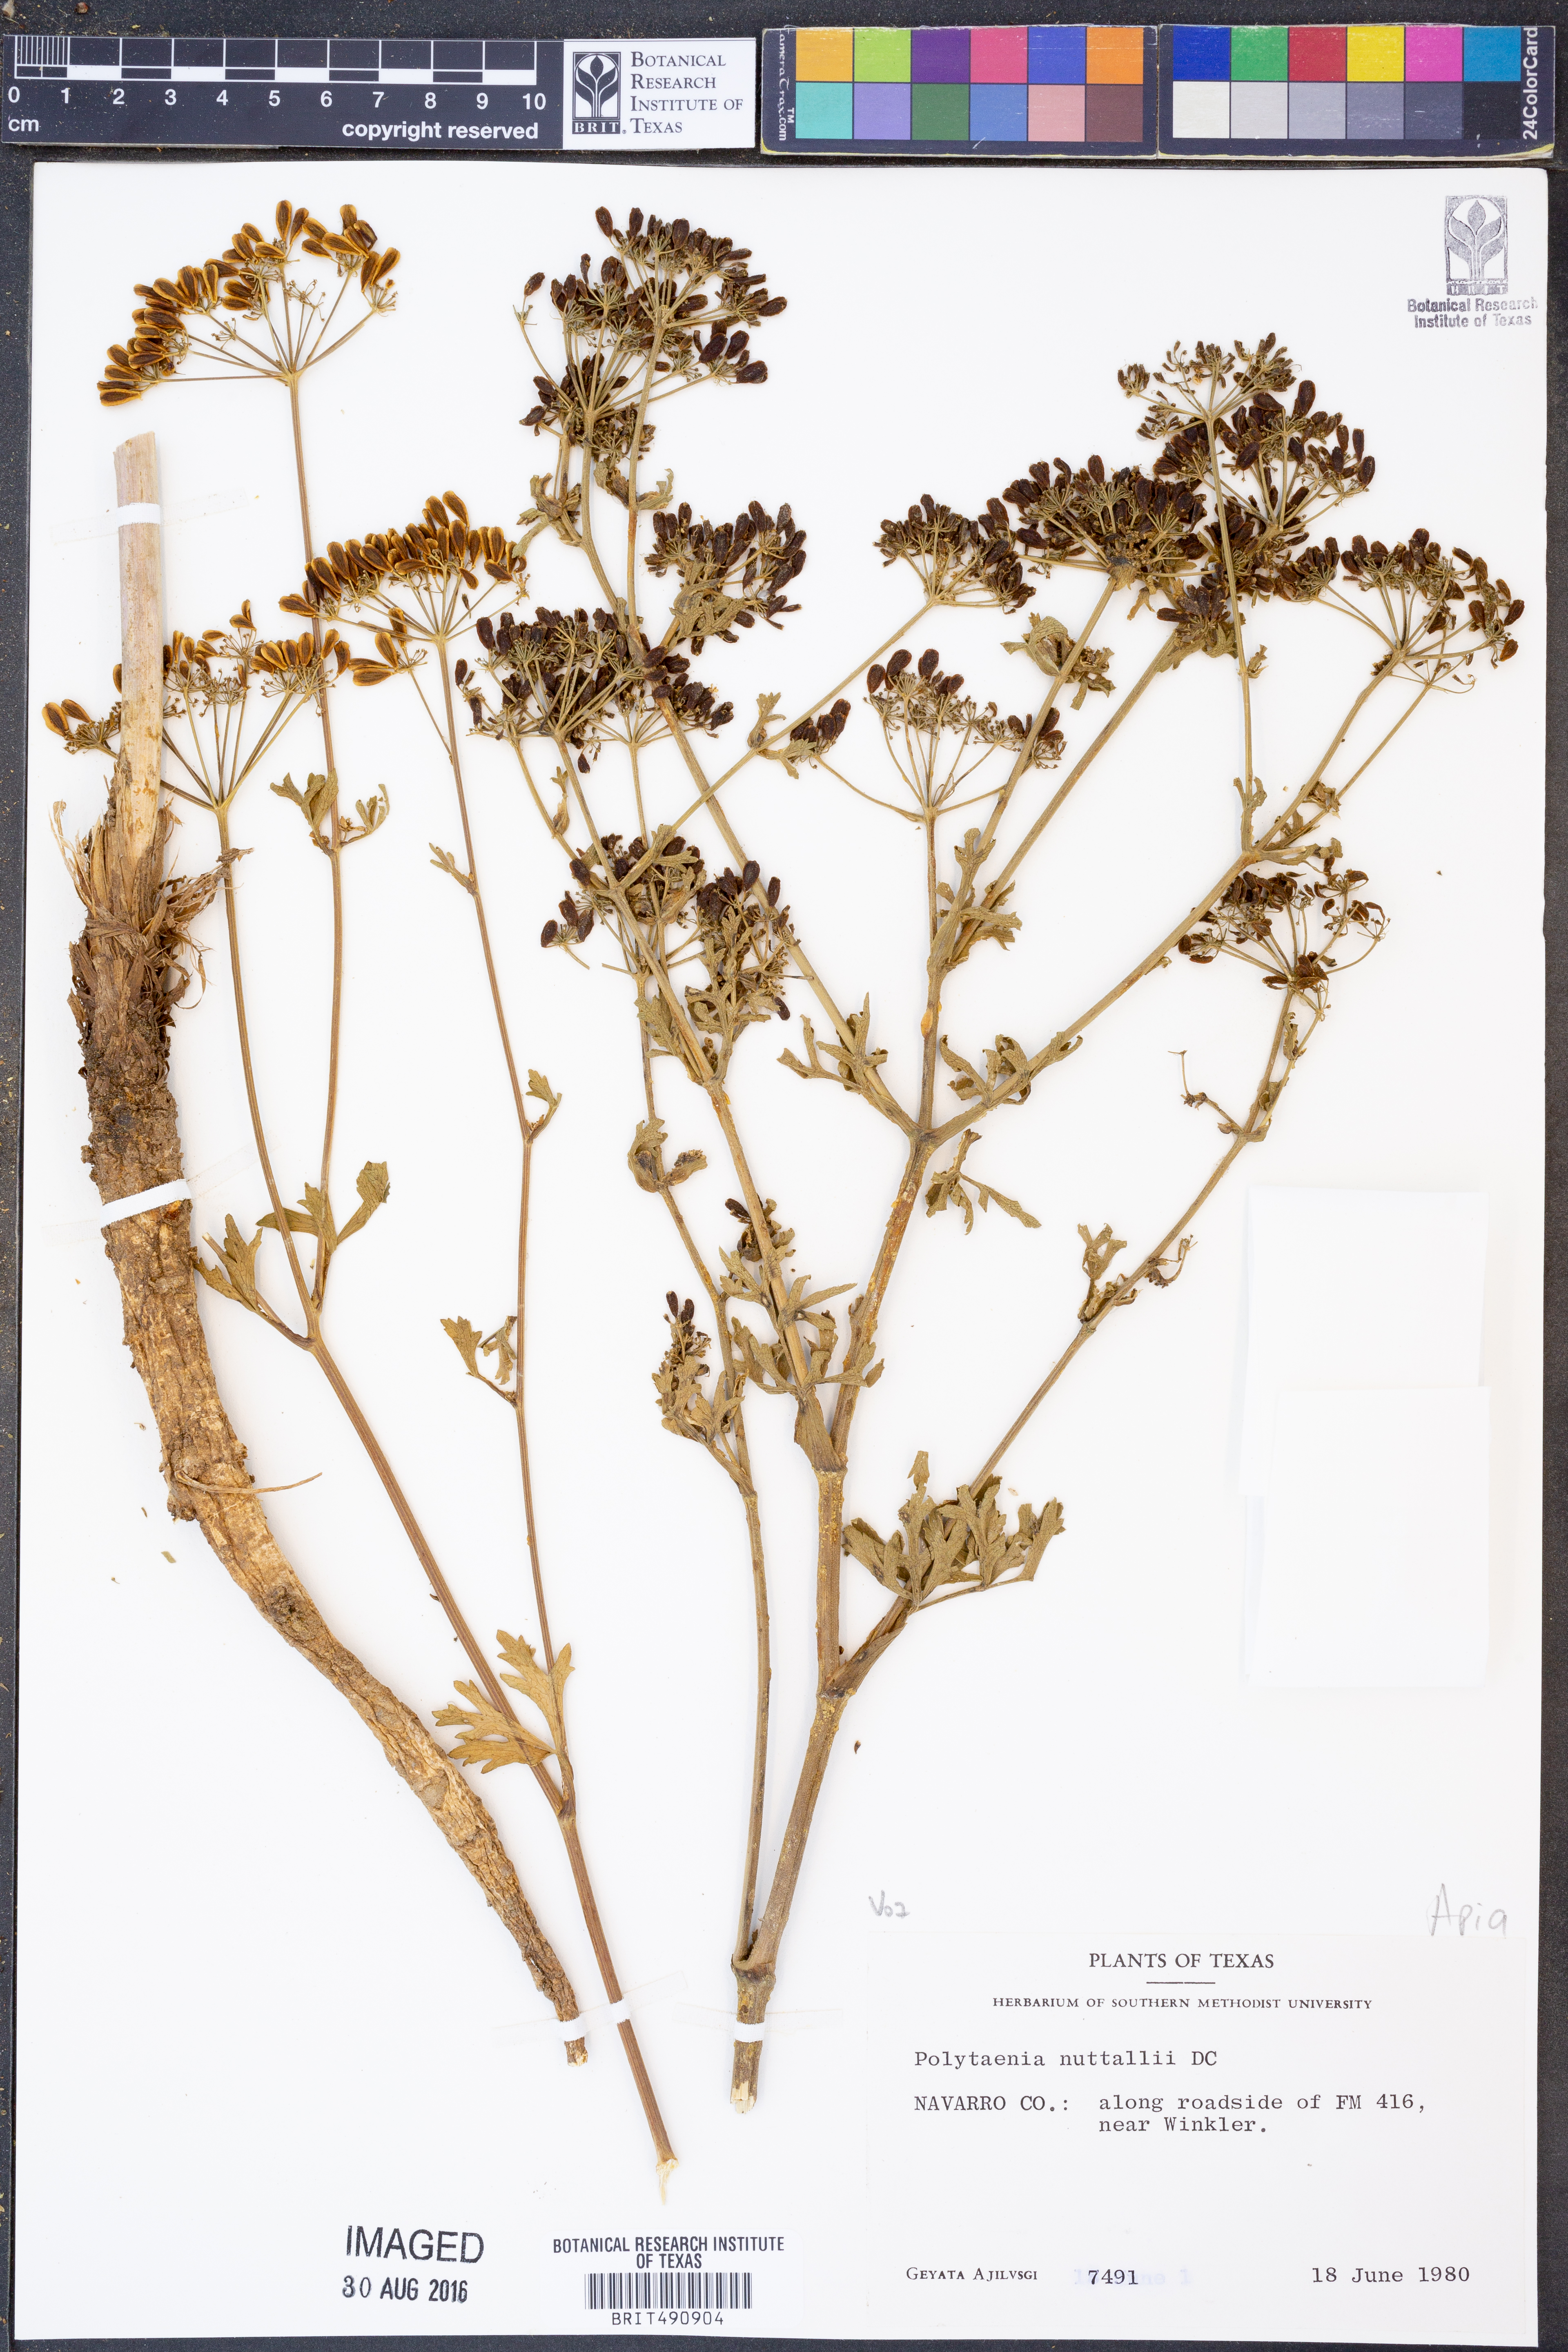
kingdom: Plantae
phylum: Tracheophyta
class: Magnoliopsida
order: Apiales
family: Apiaceae
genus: Polytaenia
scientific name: Polytaenia nuttallii
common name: Prairie-parsley
